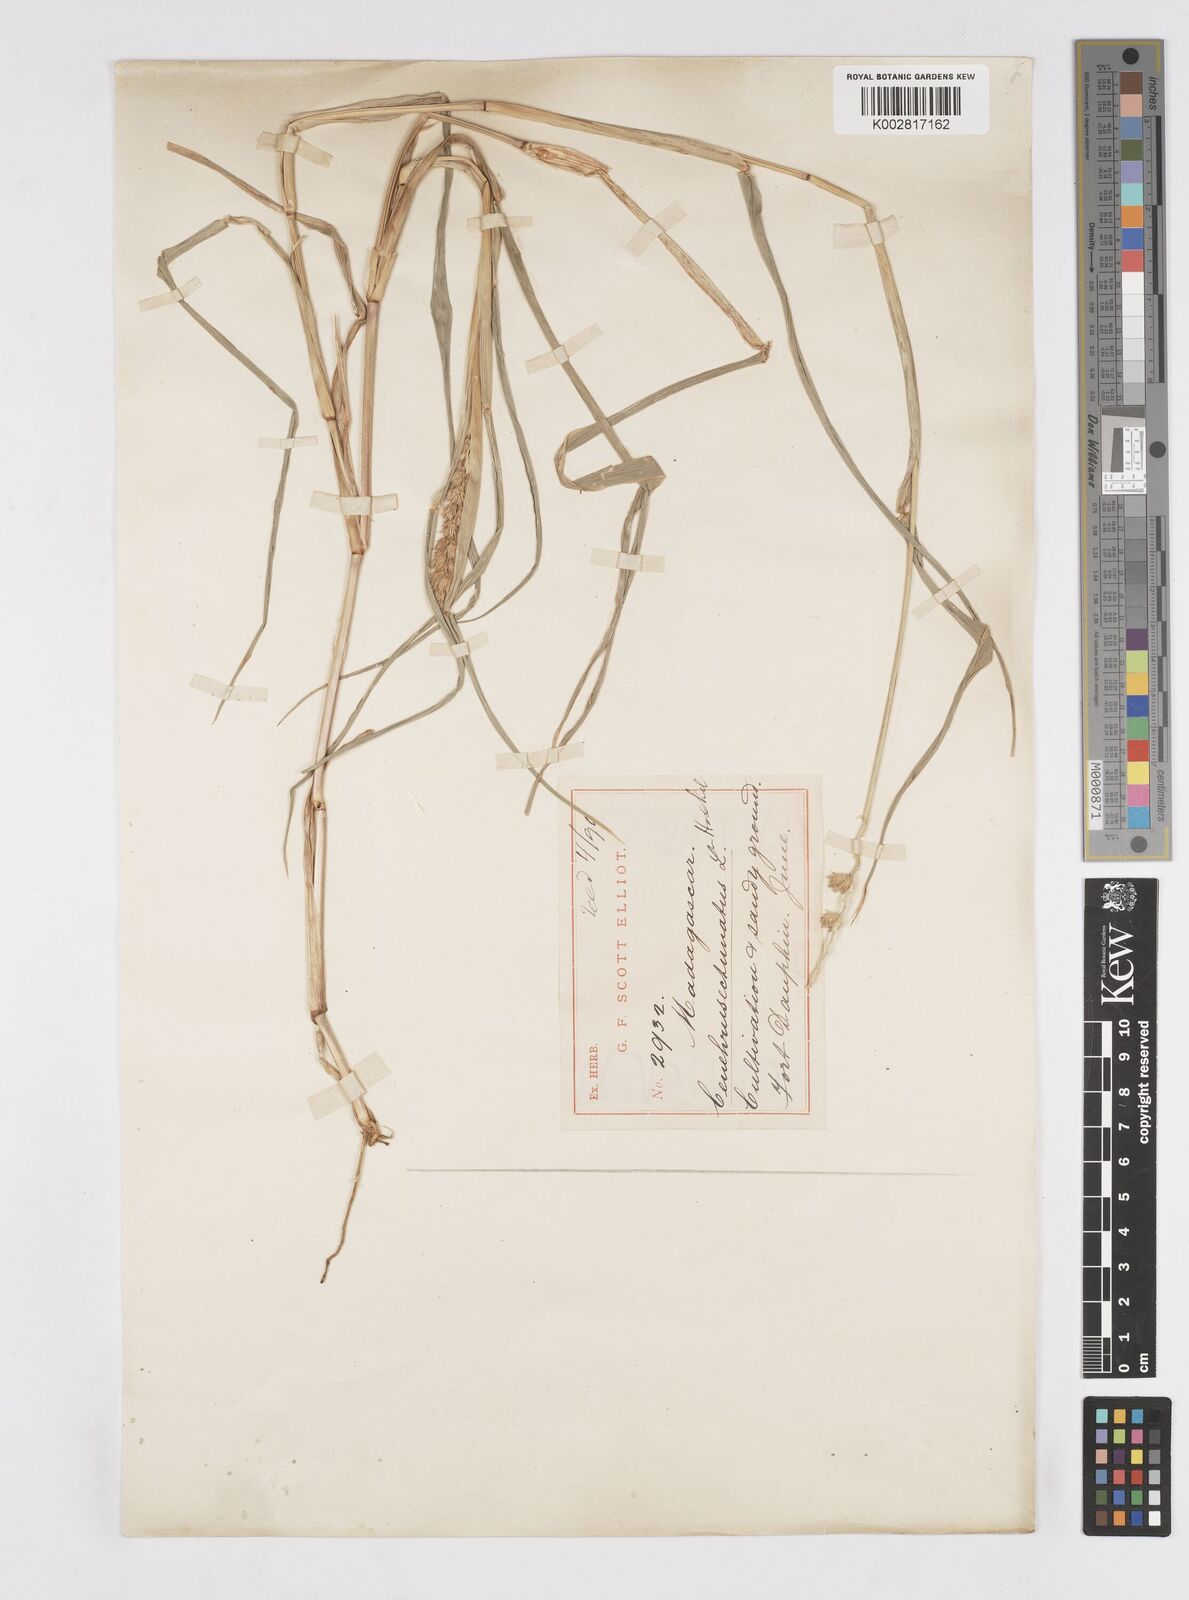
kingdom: Plantae
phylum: Tracheophyta
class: Liliopsida
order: Poales
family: Poaceae
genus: Cenchrus
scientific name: Cenchrus echinatus
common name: Southern sandbur
